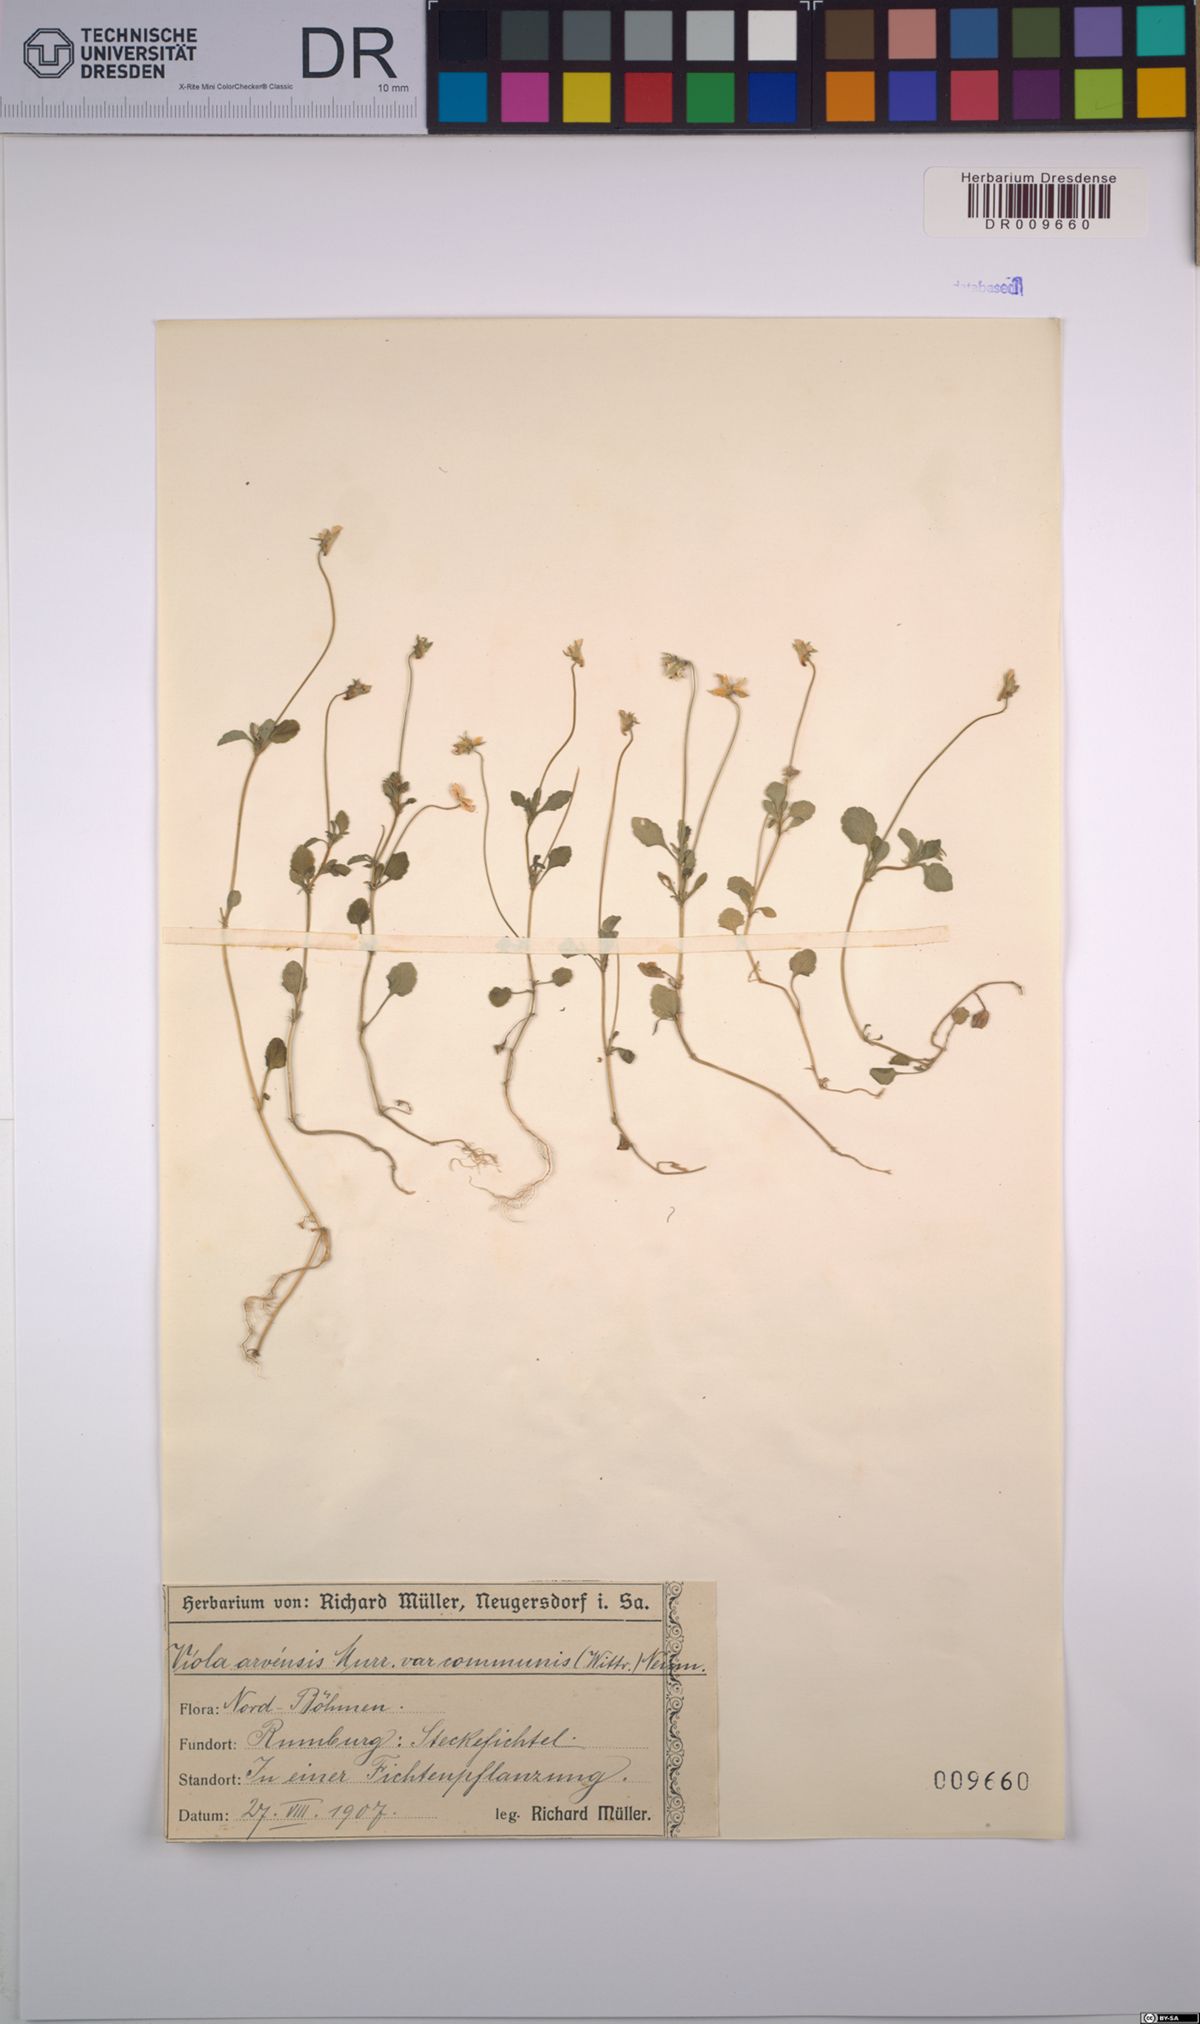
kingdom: Plantae
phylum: Tracheophyta
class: Magnoliopsida
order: Malpighiales
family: Violaceae
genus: Viola
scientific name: Viola arvensis
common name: Field pansy
